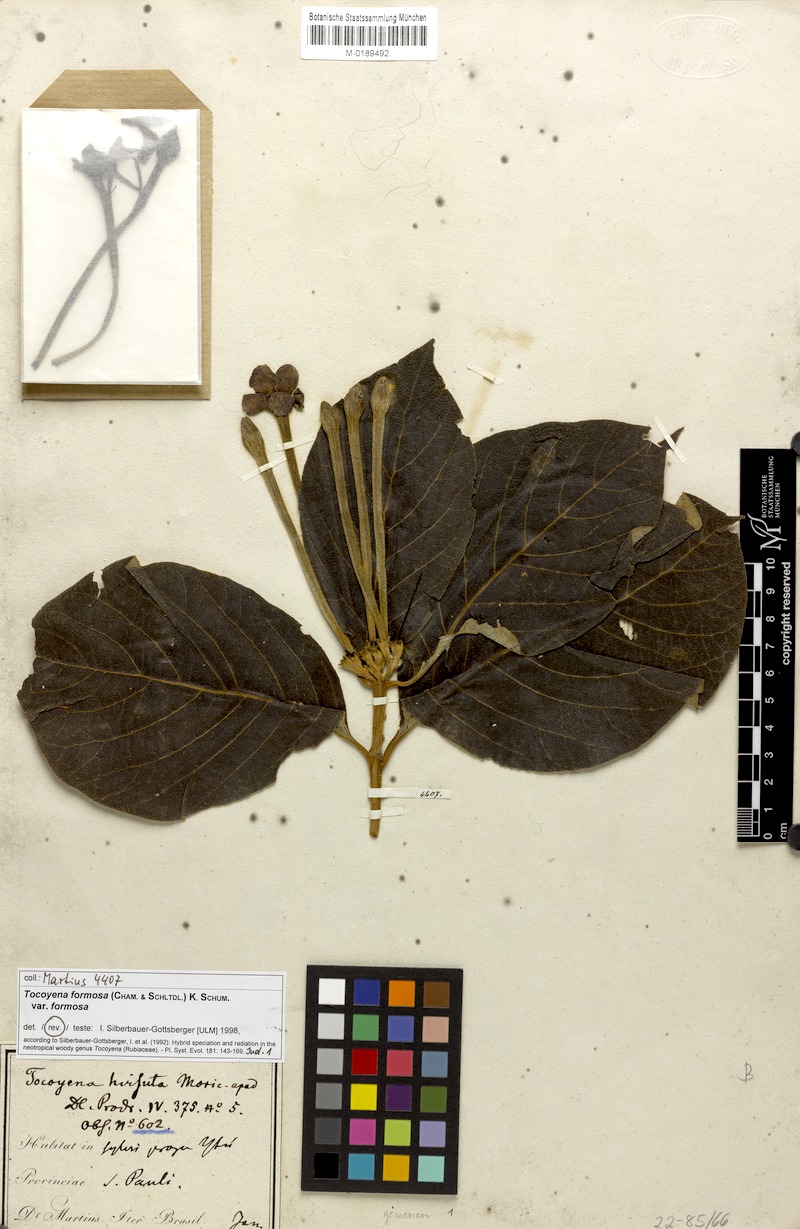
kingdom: Plantae
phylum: Tracheophyta
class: Magnoliopsida
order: Gentianales
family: Rubiaceae
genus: Tocoyena
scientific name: Tocoyena formosa
